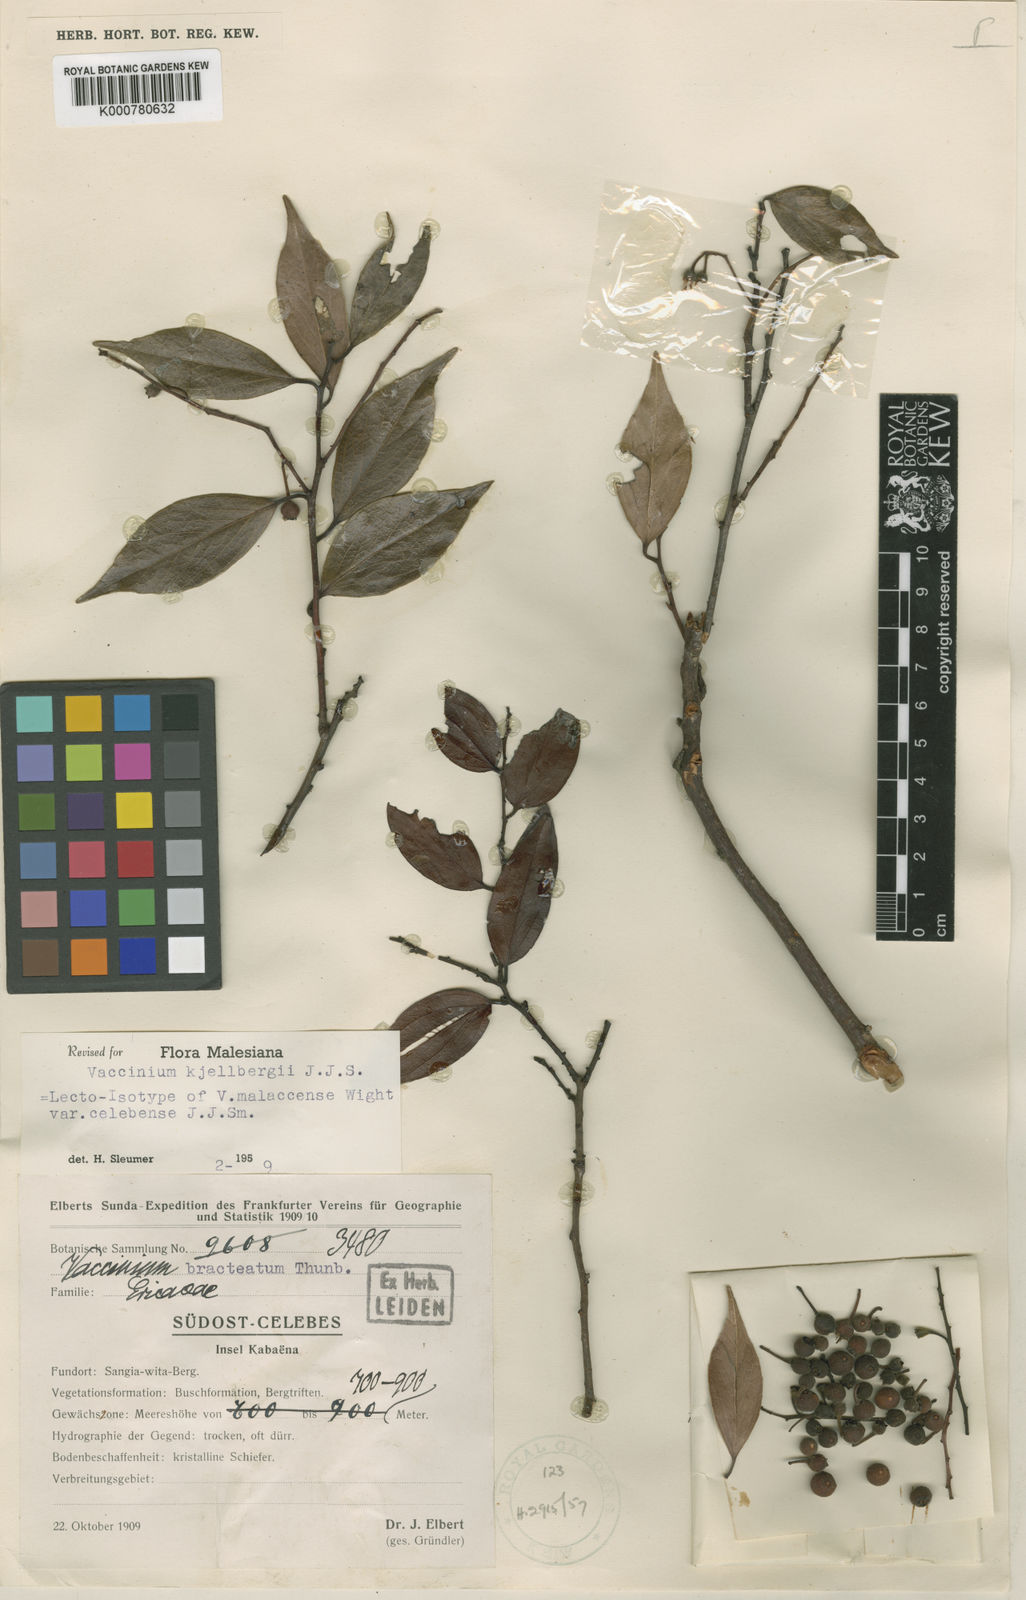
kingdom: Plantae
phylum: Tracheophyta
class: Magnoliopsida
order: Ericales
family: Ericaceae
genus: Vaccinium
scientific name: Vaccinium
